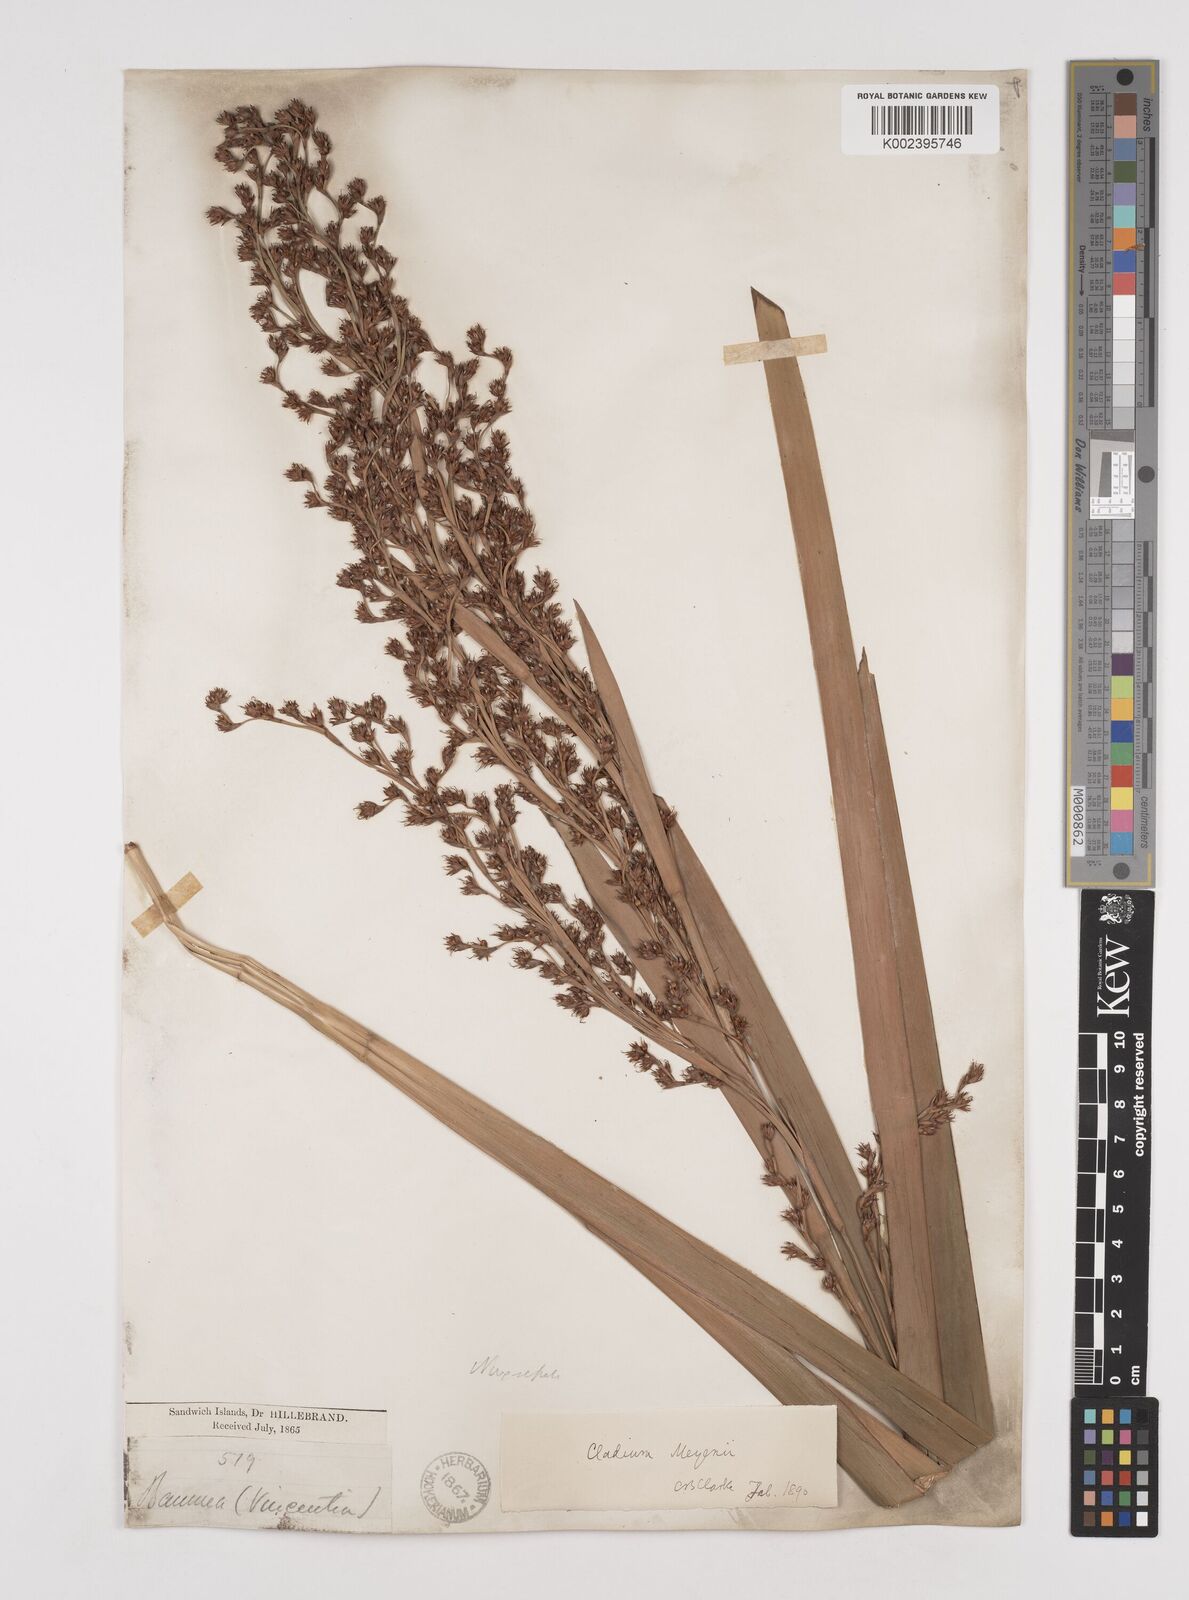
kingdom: Plantae
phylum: Tracheophyta
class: Liliopsida
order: Poales
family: Cyperaceae
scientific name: Cyperaceae
